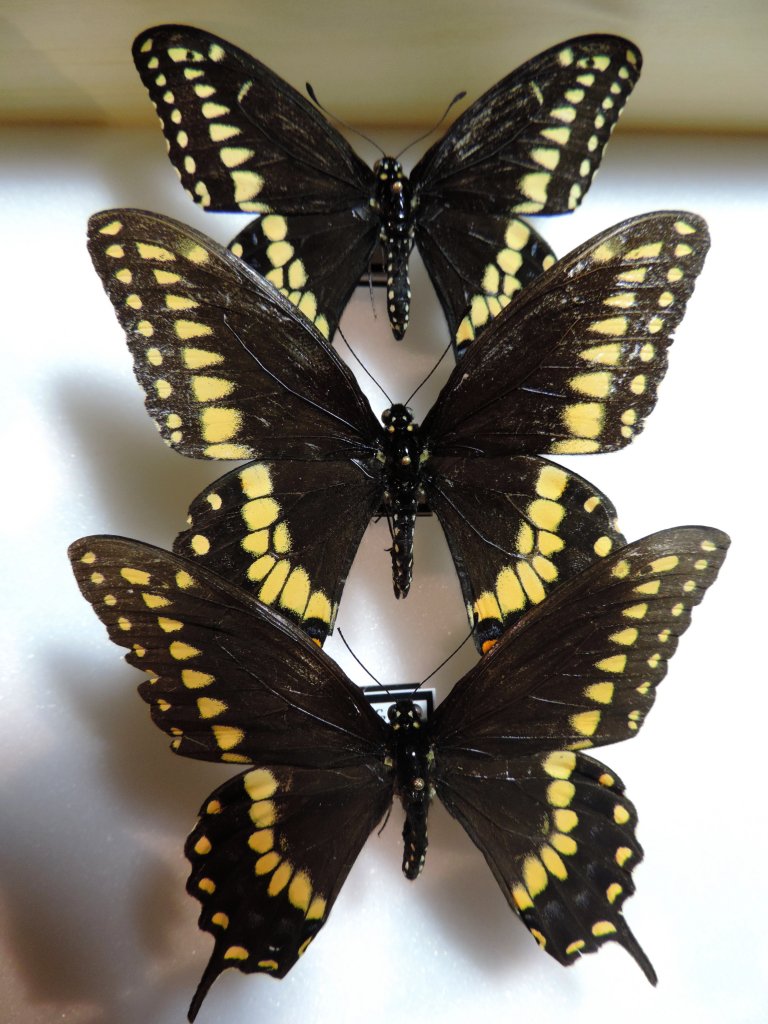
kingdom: Animalia
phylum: Arthropoda
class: Insecta
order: Lepidoptera
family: Papilionidae
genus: Papilio
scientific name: Papilio polyxenes
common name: Black Swallowtail
